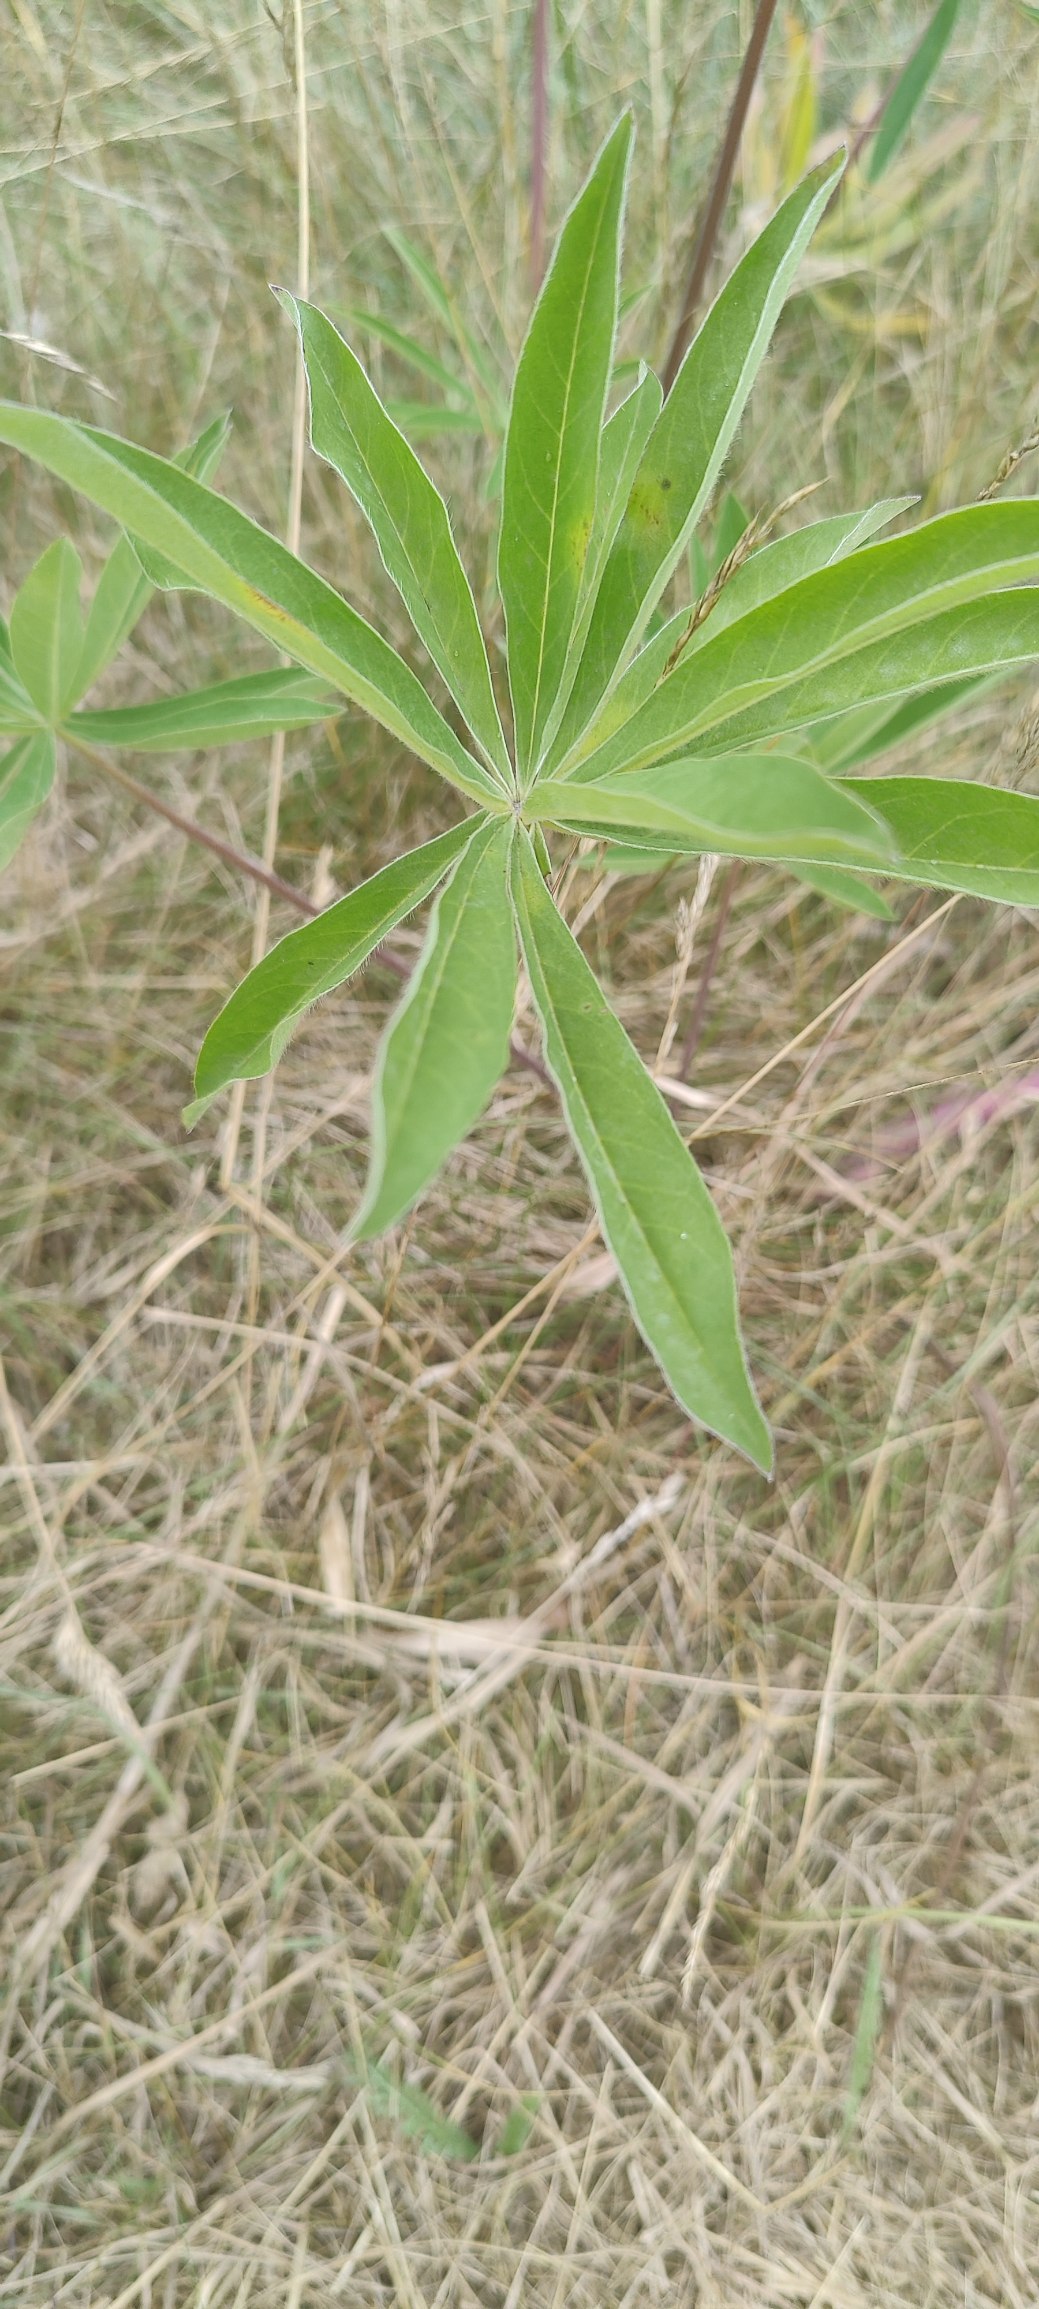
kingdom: Plantae
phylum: Tracheophyta
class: Magnoliopsida
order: Fabales
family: Fabaceae
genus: Lupinus
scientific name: Lupinus polyphyllus
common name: Mangebladet lupin
